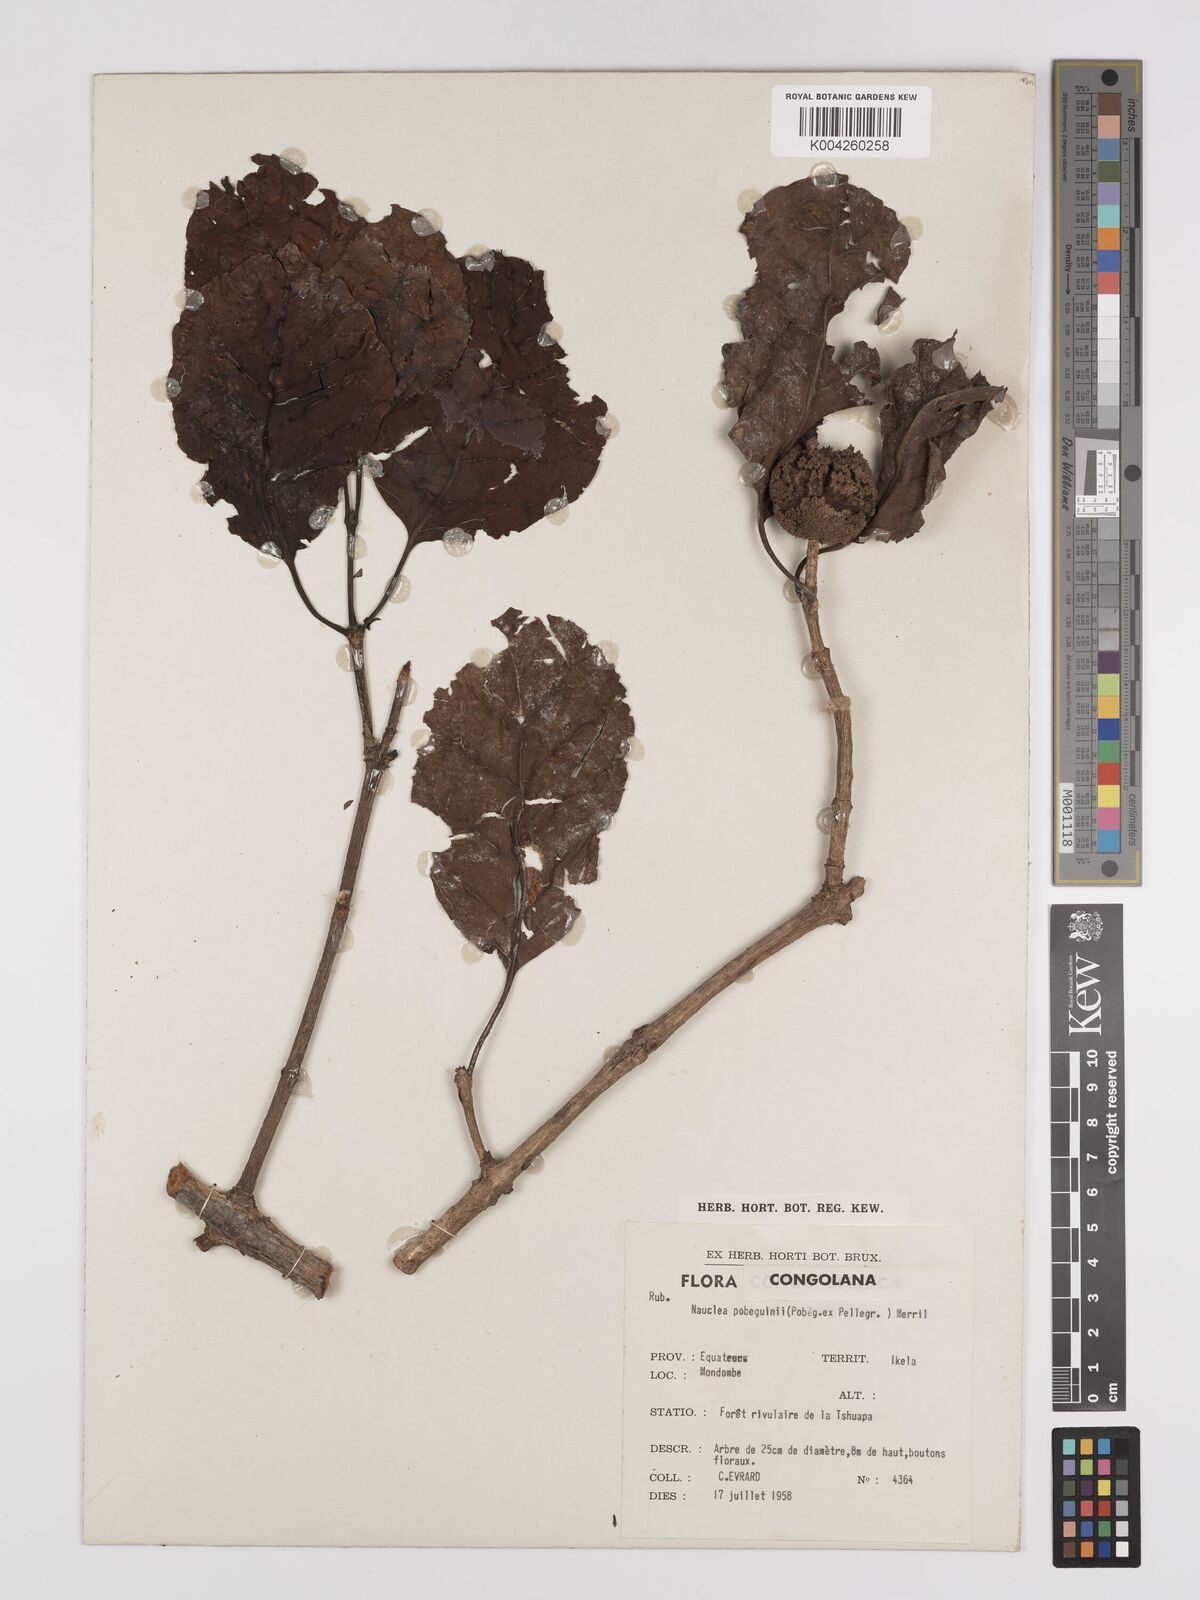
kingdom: Plantae
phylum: Tracheophyta
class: Magnoliopsida
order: Gentianales
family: Rubiaceae
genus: Nauclea
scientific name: Nauclea pobeguinii
